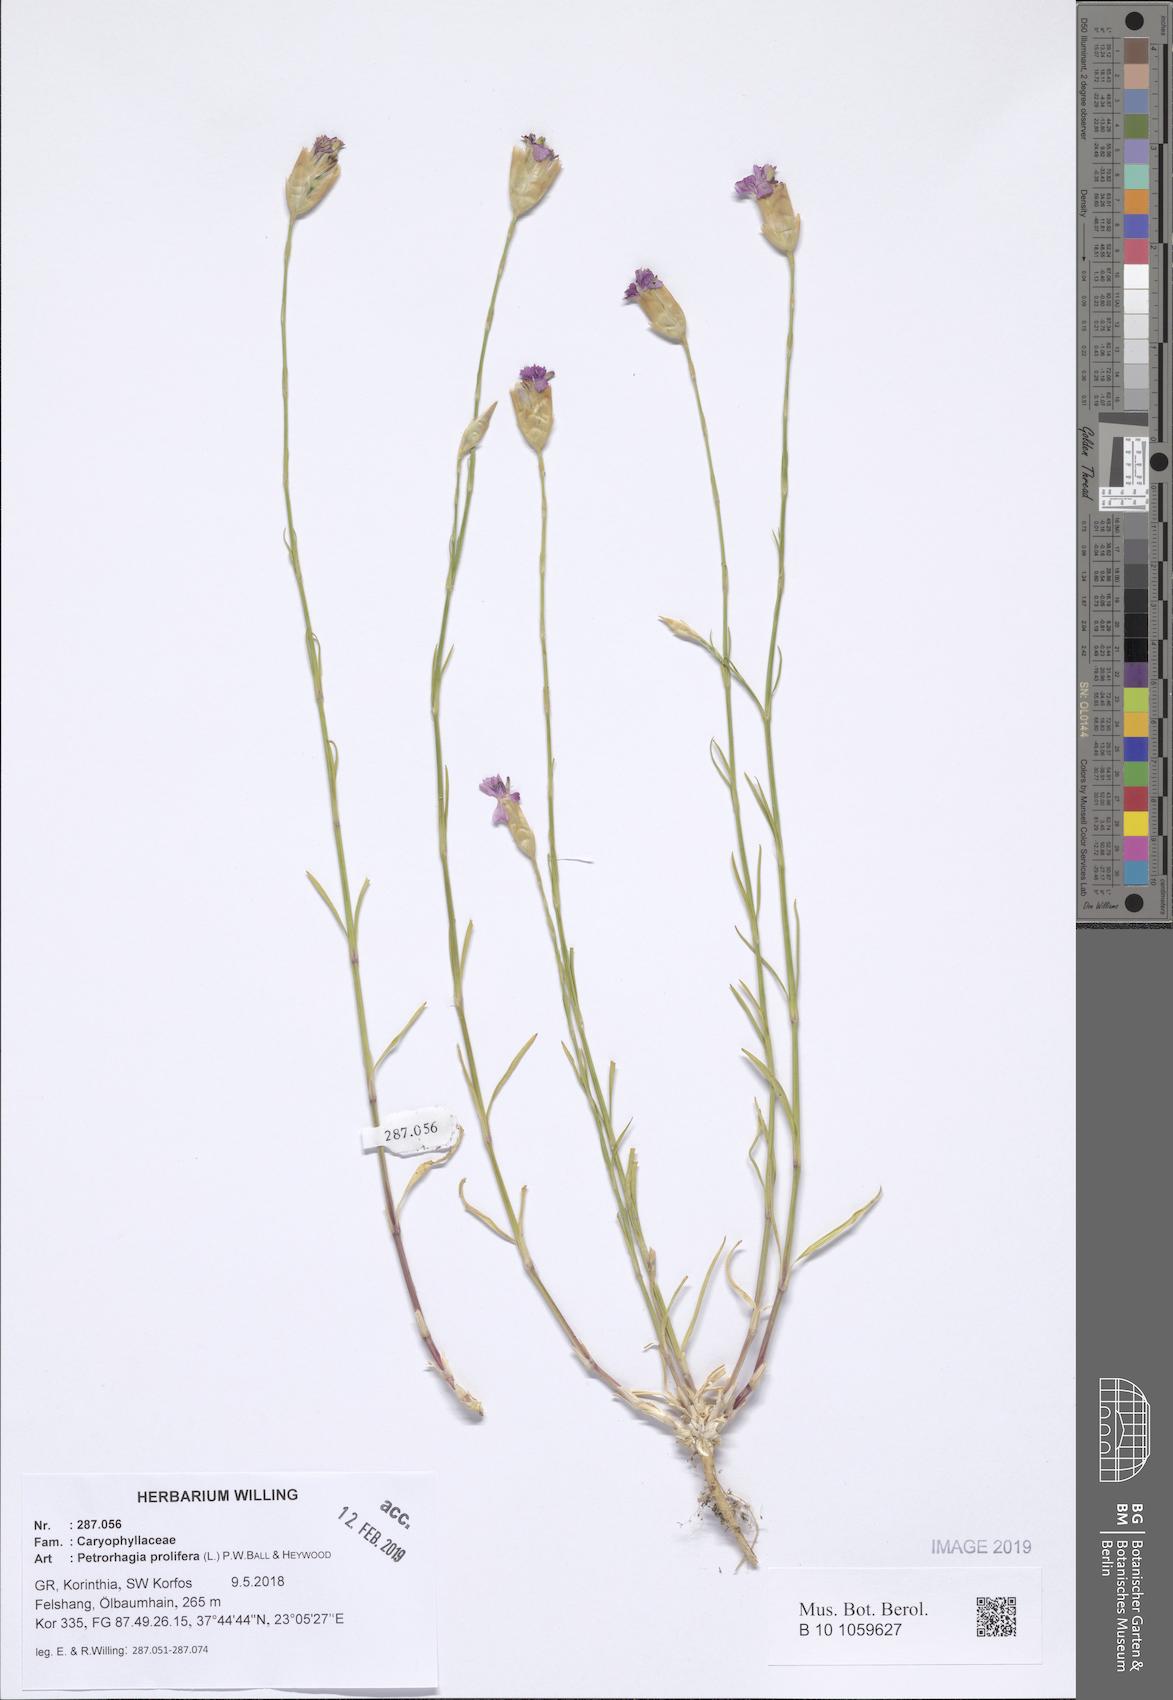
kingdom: Plantae
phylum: Tracheophyta
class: Magnoliopsida
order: Caryophyllales
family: Caryophyllaceae
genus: Petrorhagia
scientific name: Petrorhagia prolifera
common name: Proliferous pink
